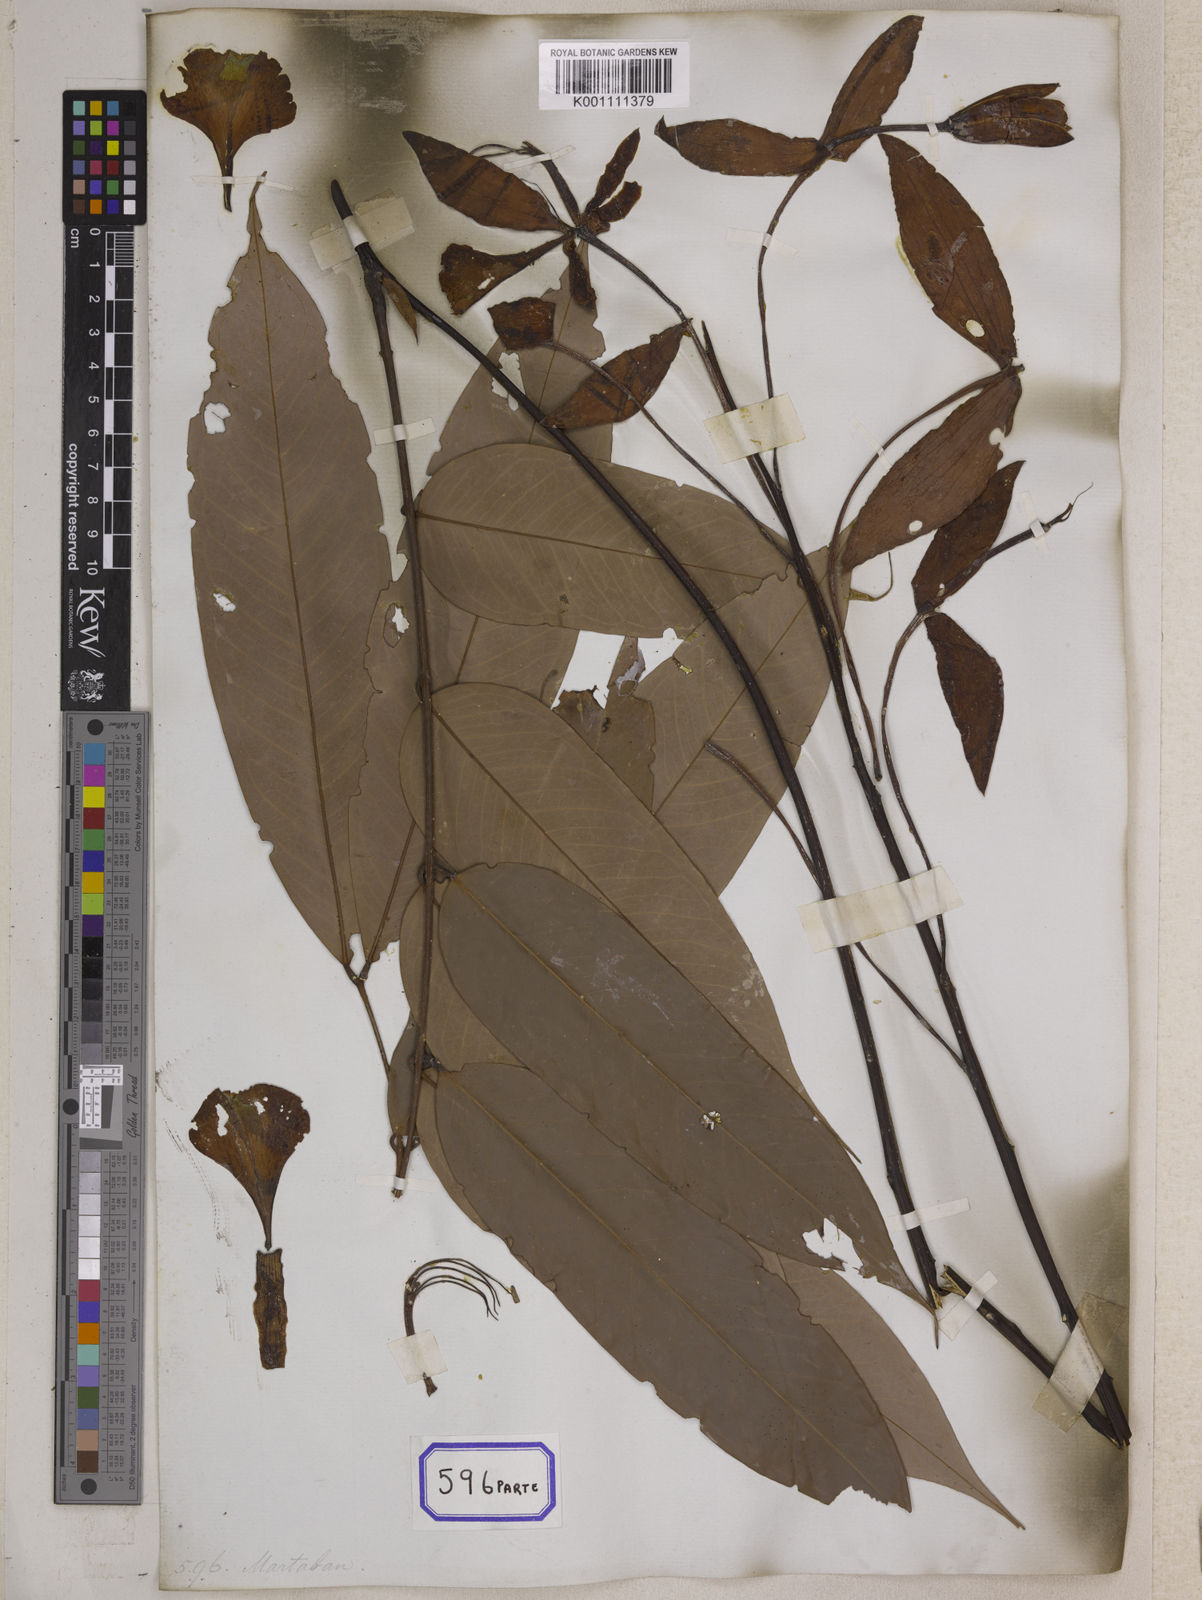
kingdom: Plantae
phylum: Tracheophyta
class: Magnoliopsida
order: Fabales
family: Fabaceae
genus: Amherstia
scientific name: Amherstia nobilis
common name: Pride-of-burma
